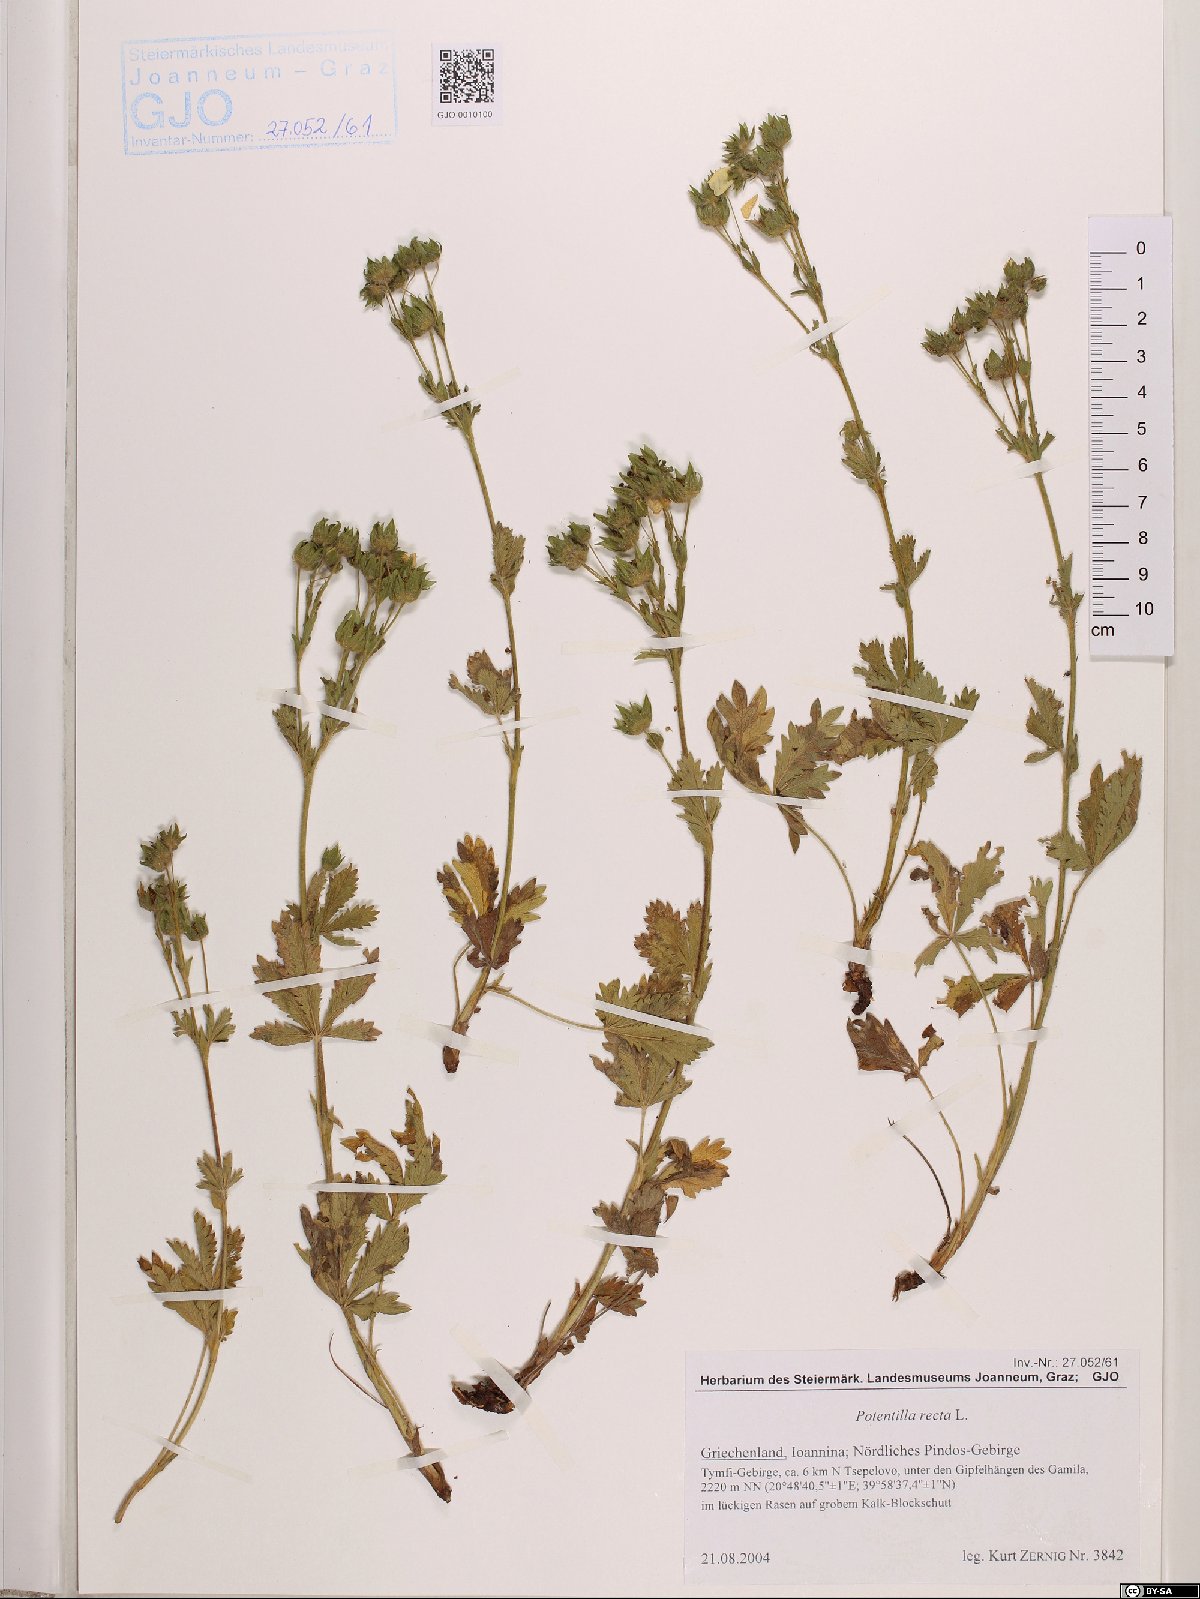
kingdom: Plantae
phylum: Tracheophyta
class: Magnoliopsida
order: Rosales
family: Rosaceae
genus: Potentilla
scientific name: Potentilla recta
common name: Sulphur cinquefoil
